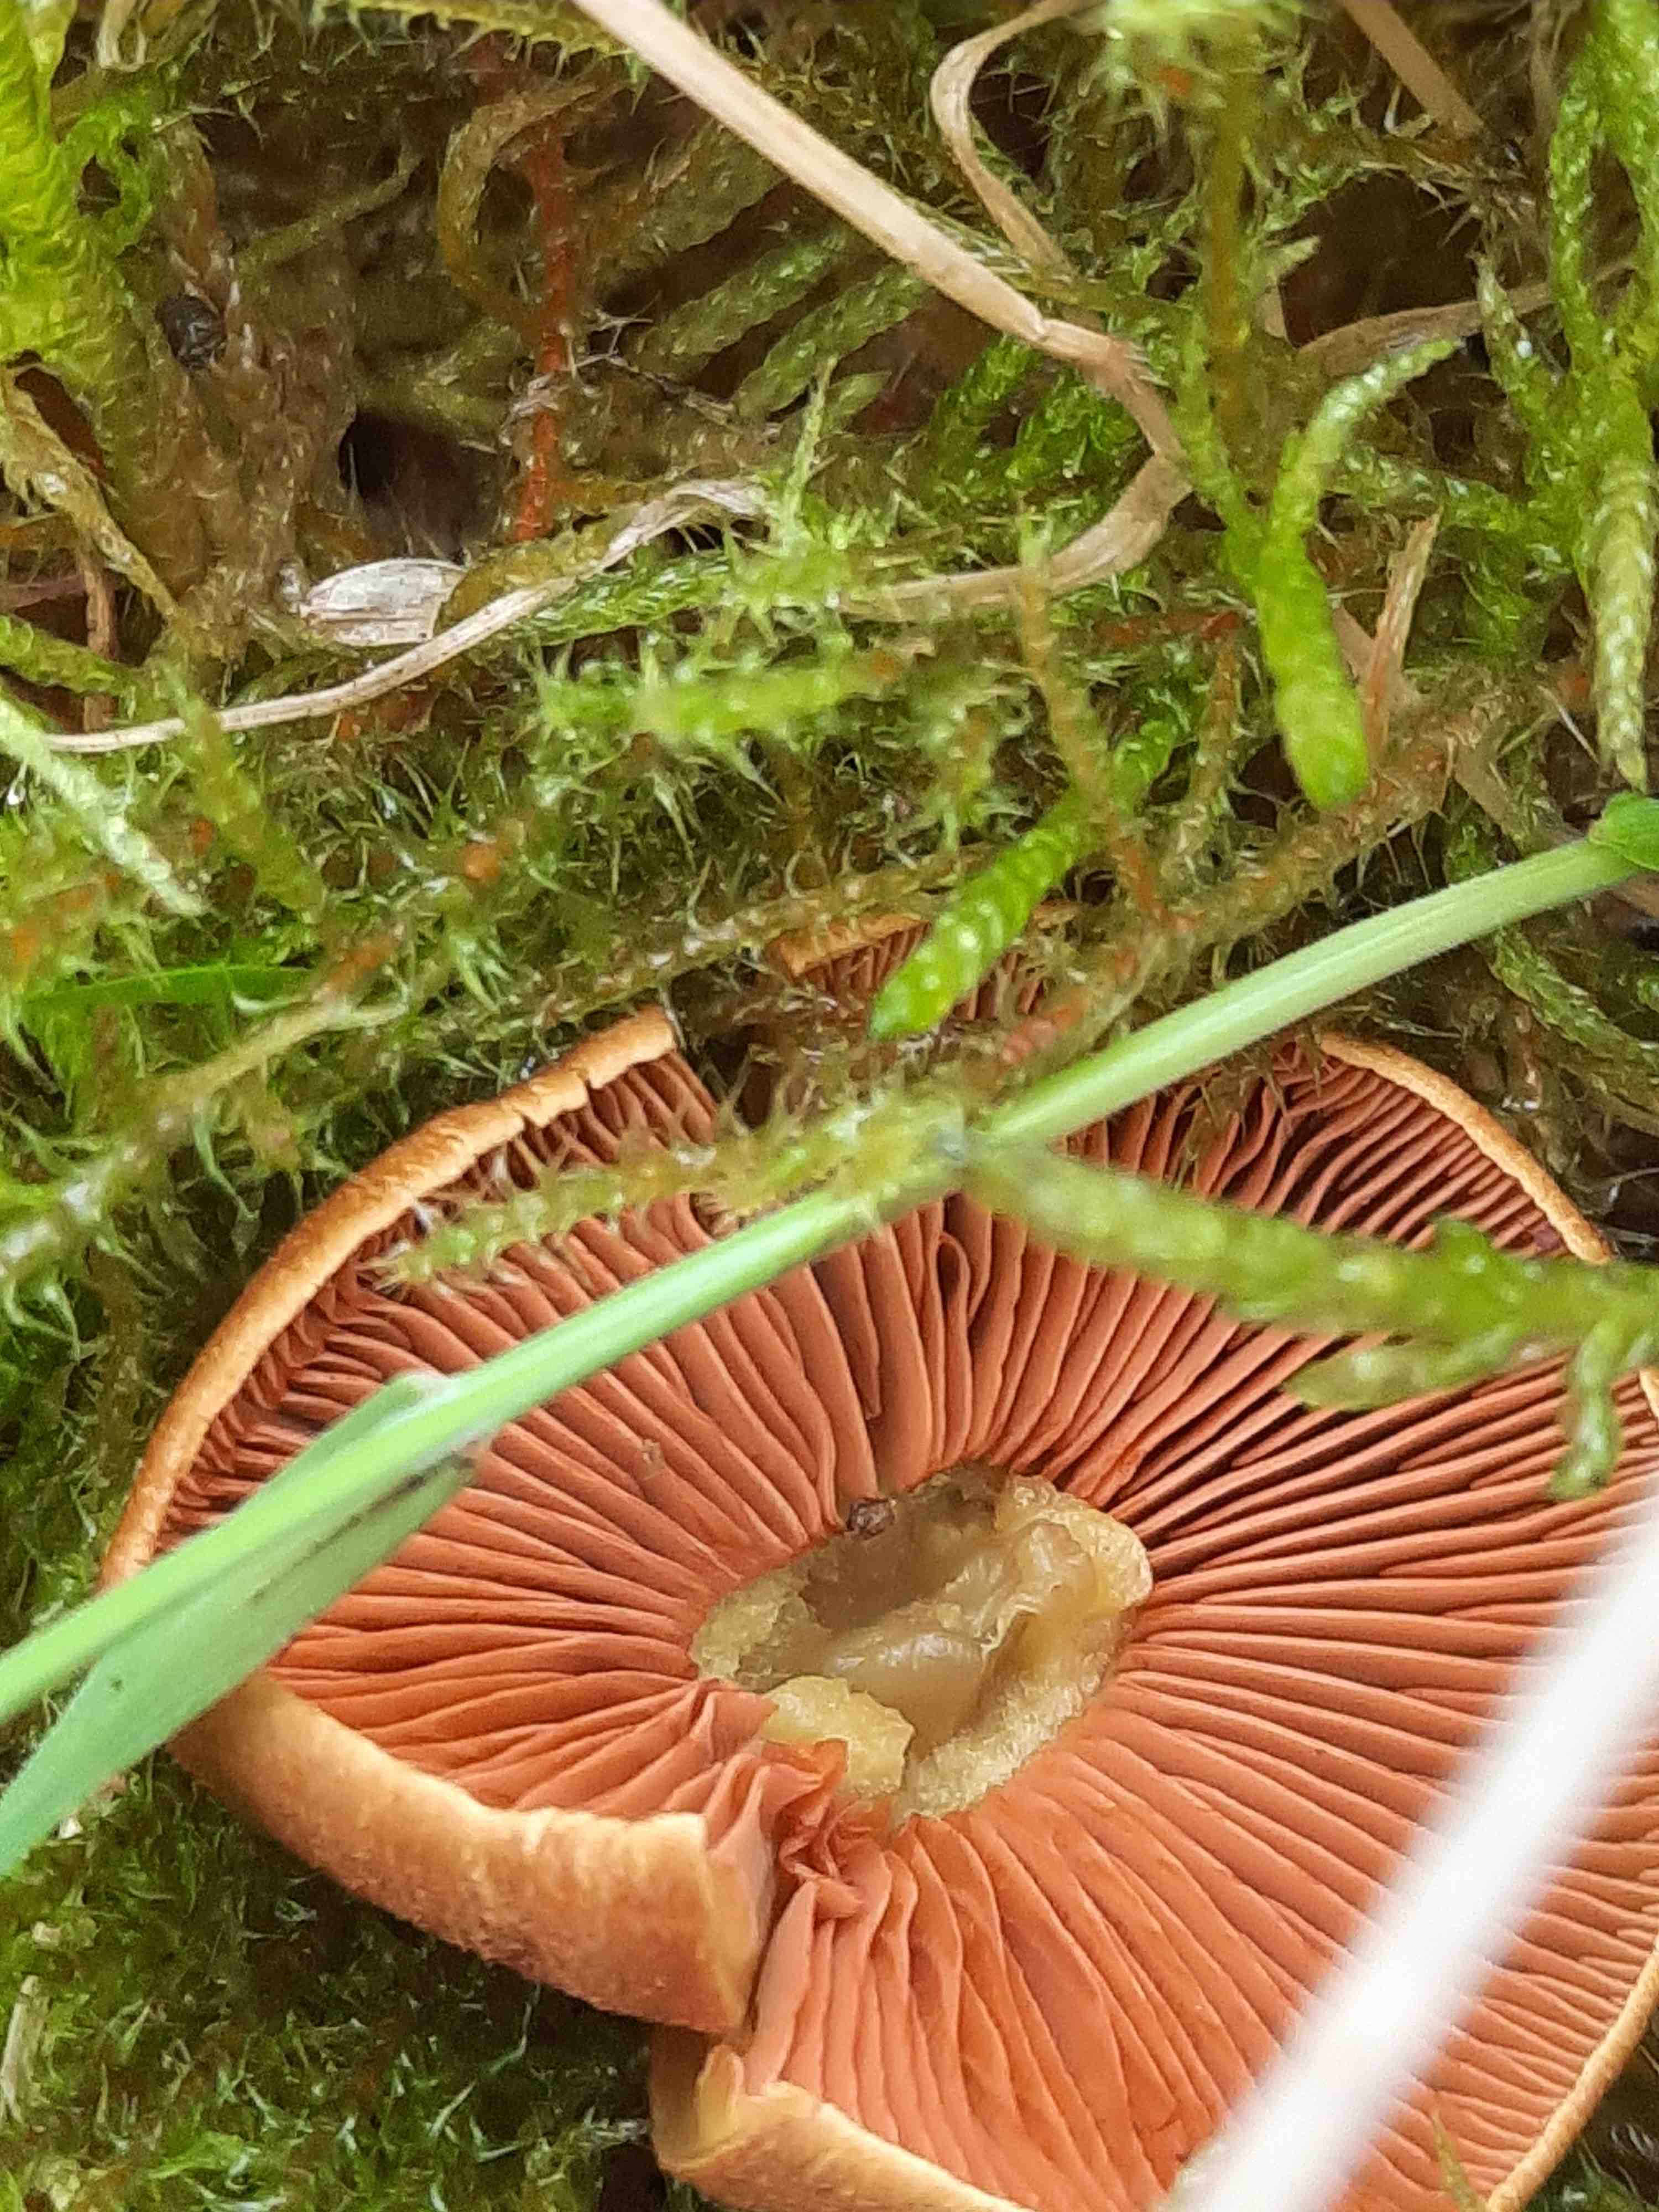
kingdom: Fungi
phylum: Basidiomycota
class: Agaricomycetes
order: Agaricales
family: Cortinariaceae
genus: Cortinarius
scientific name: Cortinarius malicorius
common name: grønkødet slørhat
